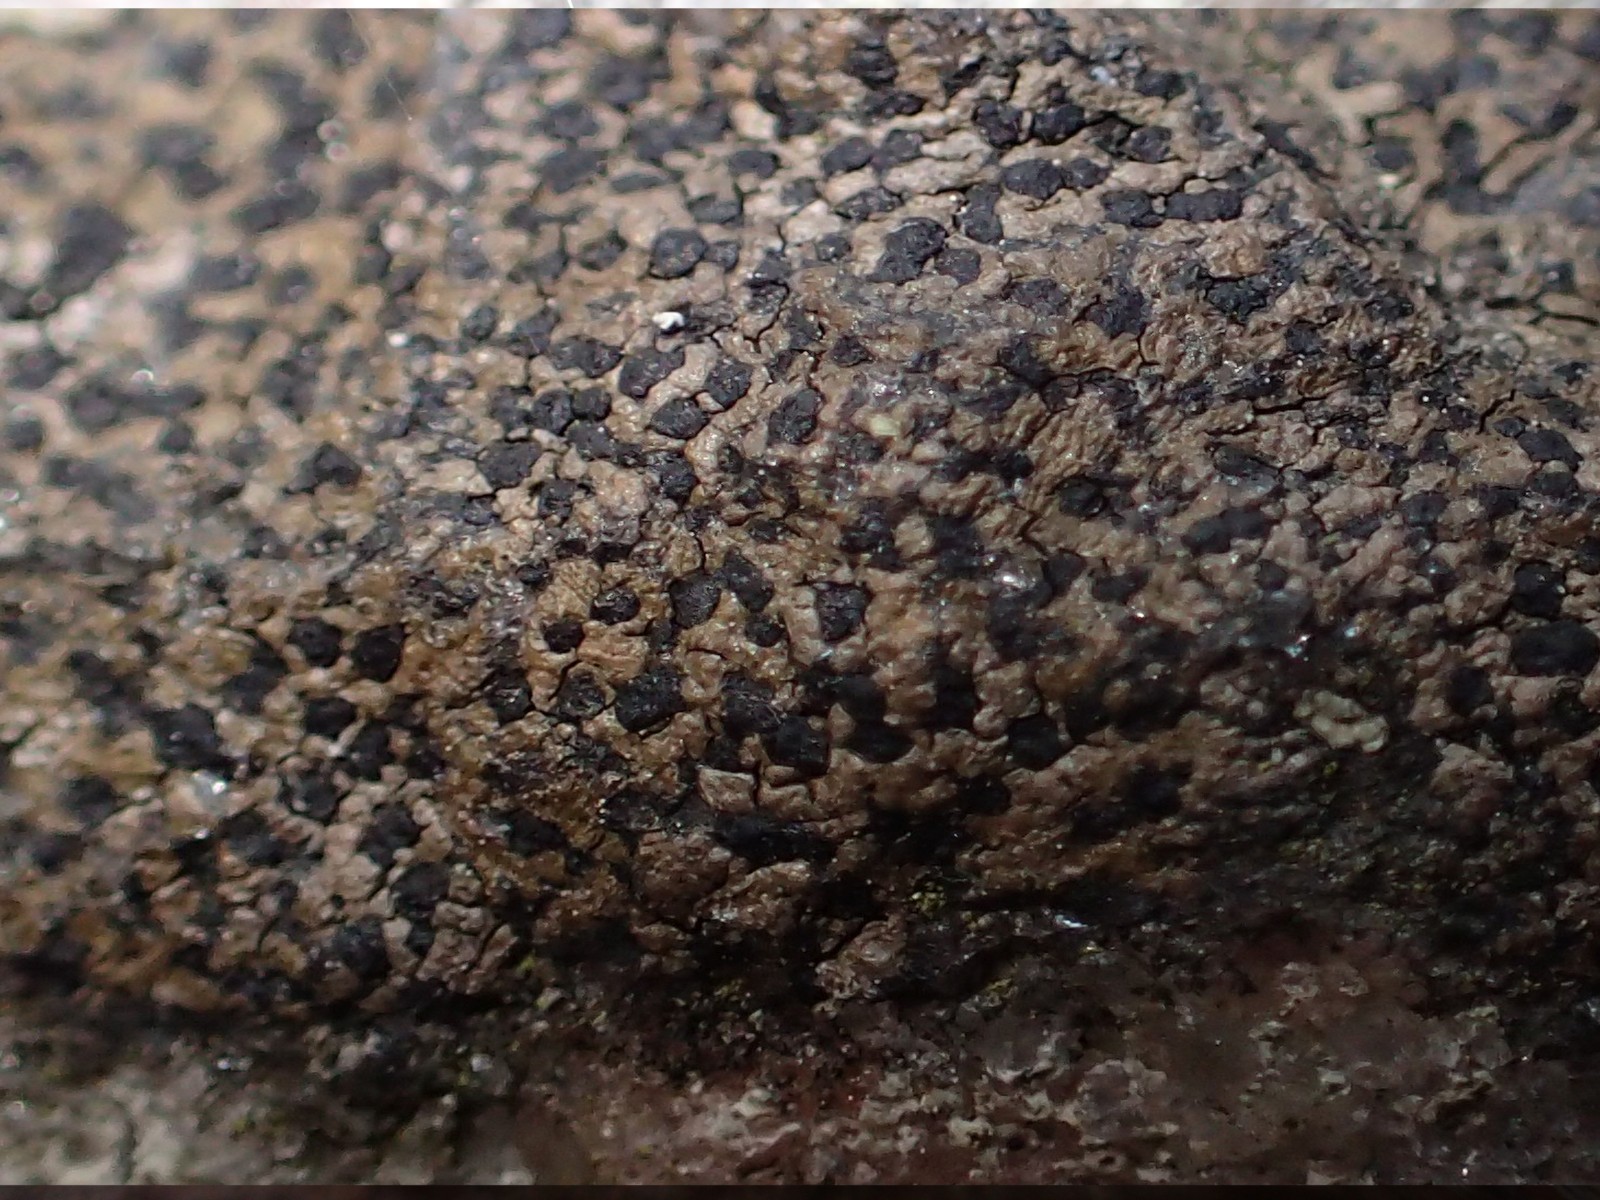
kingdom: Fungi
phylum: Ascomycota
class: Lecanoromycetes
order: Rhizocarpales
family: Rhizocarpaceae
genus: Rhizocarpon
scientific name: Rhizocarpon reductum
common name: mørk landkortlav
